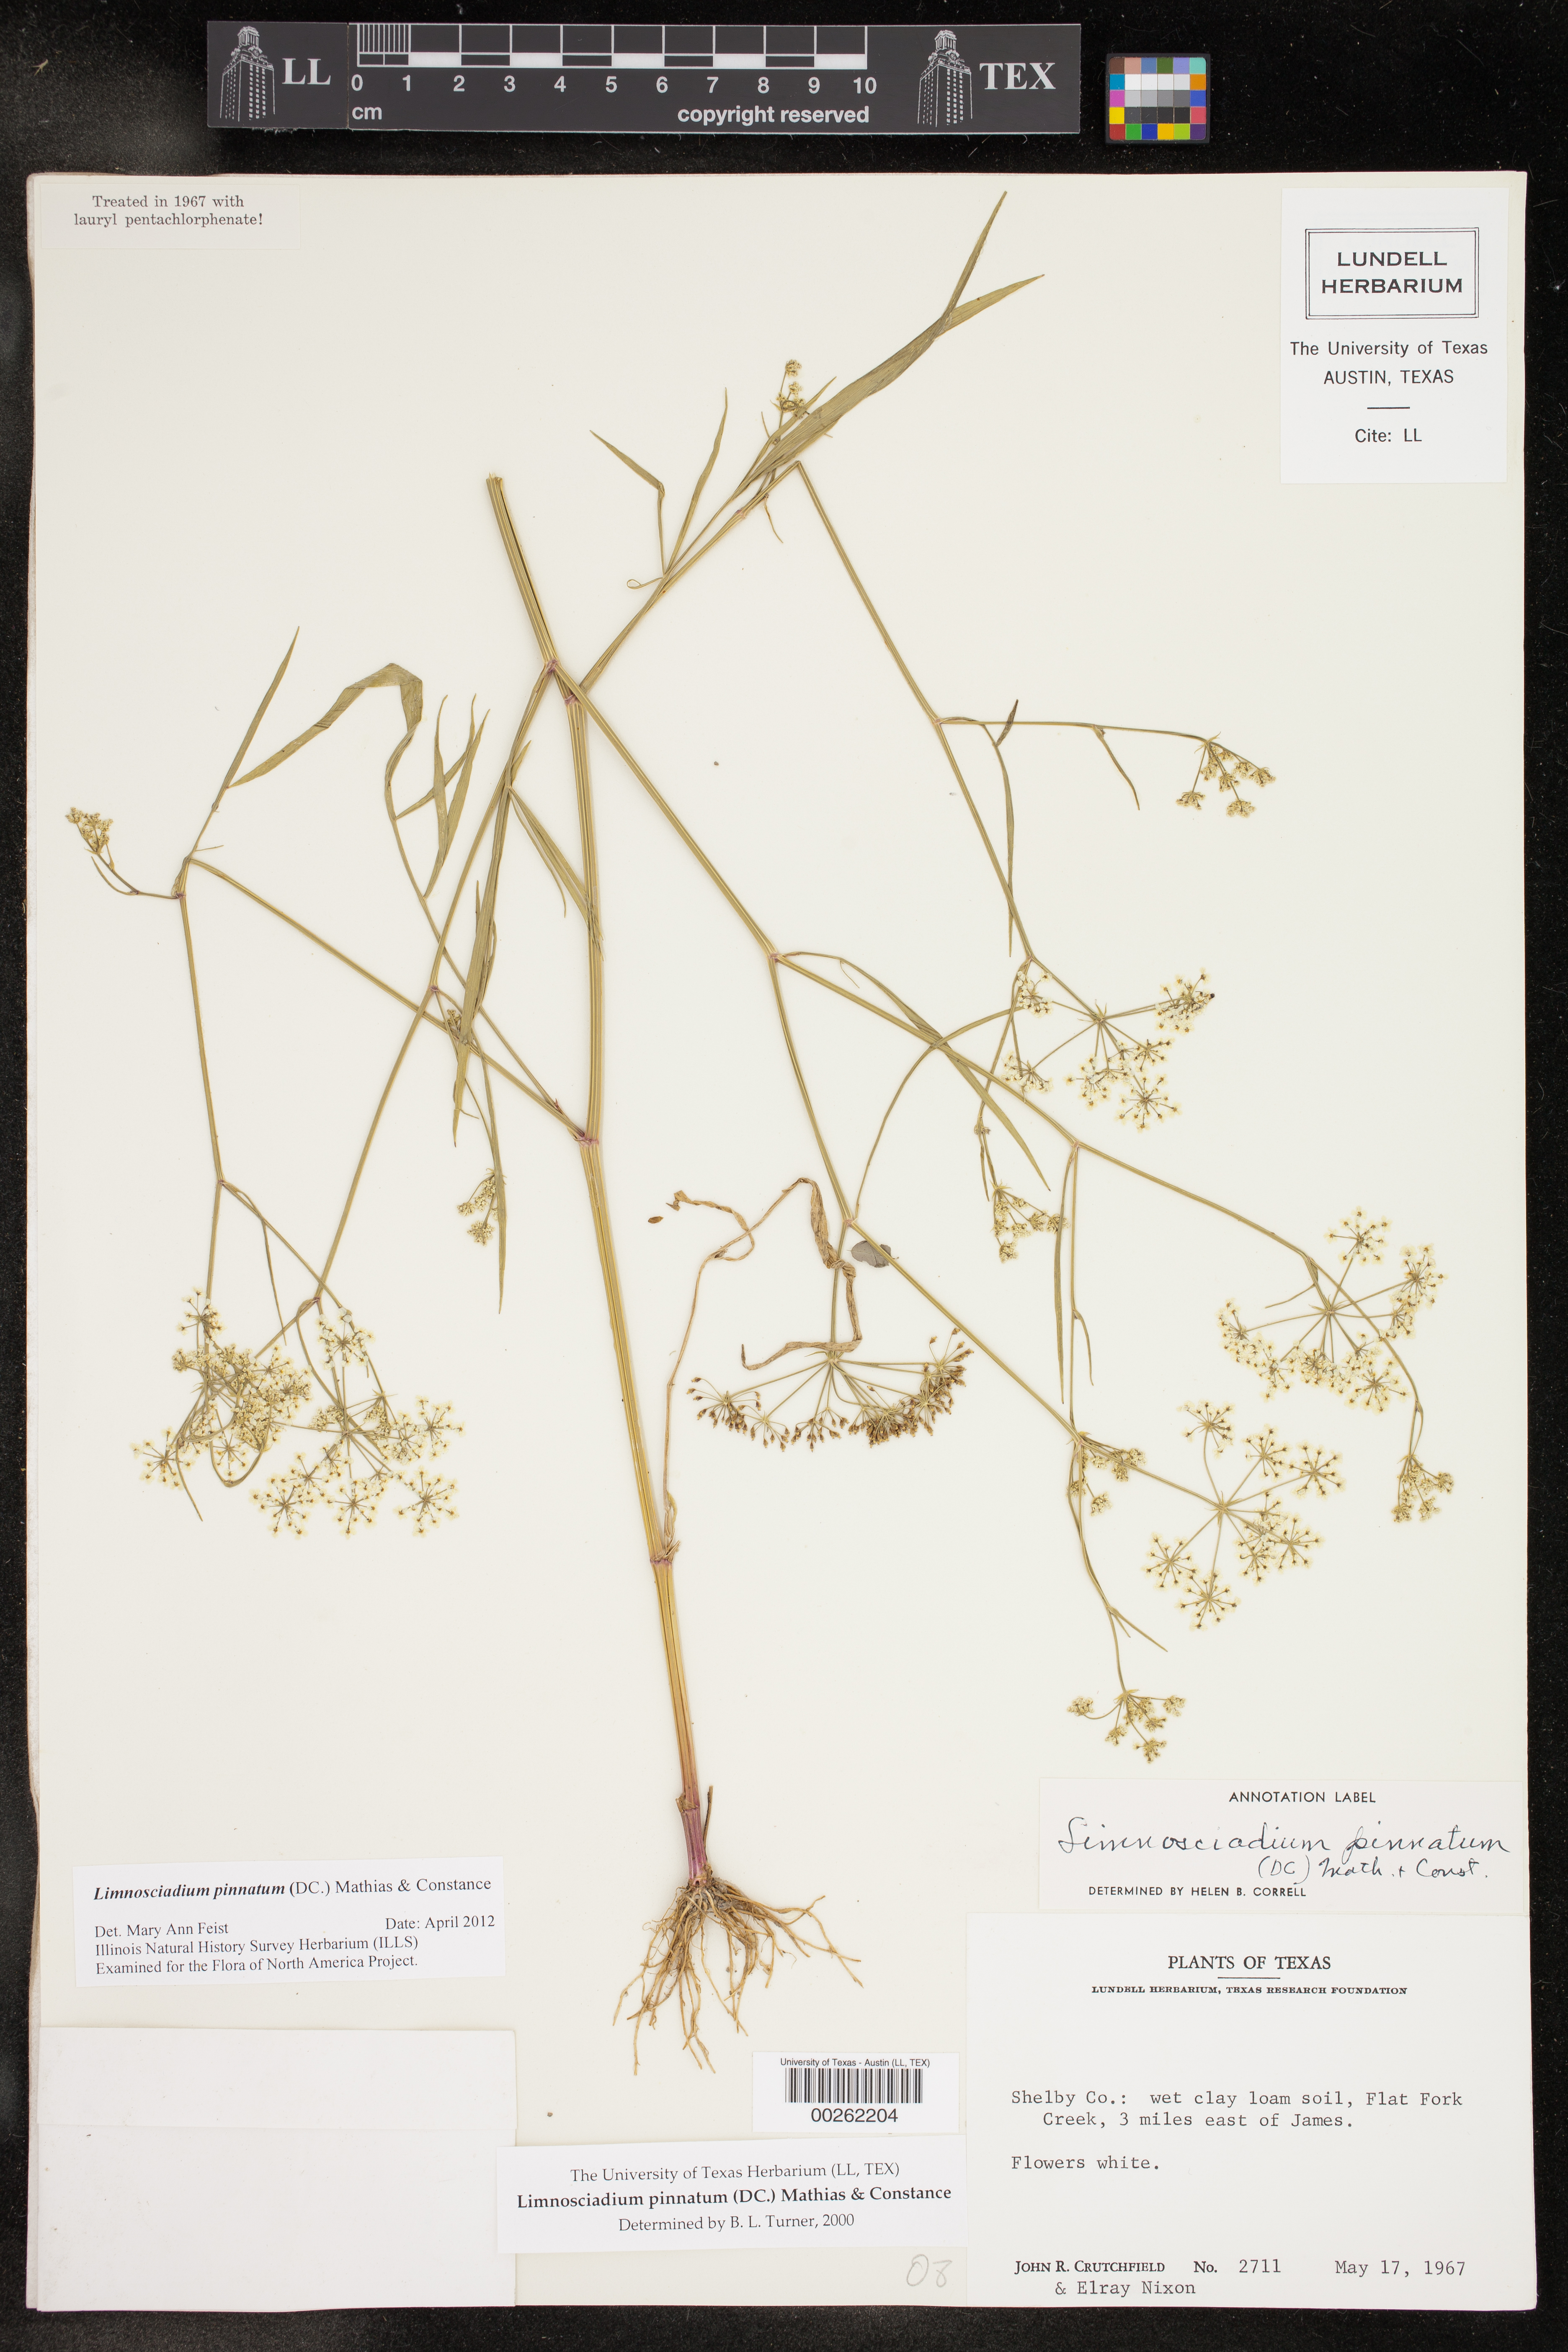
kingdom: Plantae
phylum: Tracheophyta
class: Magnoliopsida
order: Apiales
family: Apiaceae
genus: Limnosciadium
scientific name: Limnosciadium pinnatum
